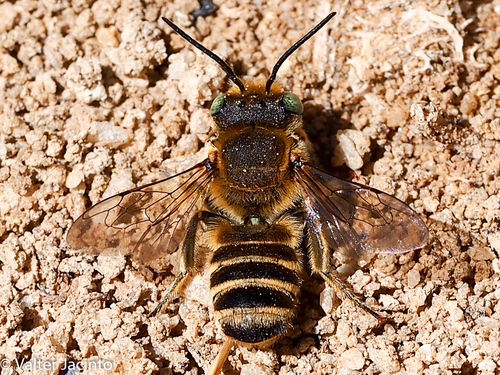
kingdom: Animalia
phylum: Arthropoda
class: Insecta
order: Hymenoptera
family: Megachilidae
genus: Megachile
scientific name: Megachile
